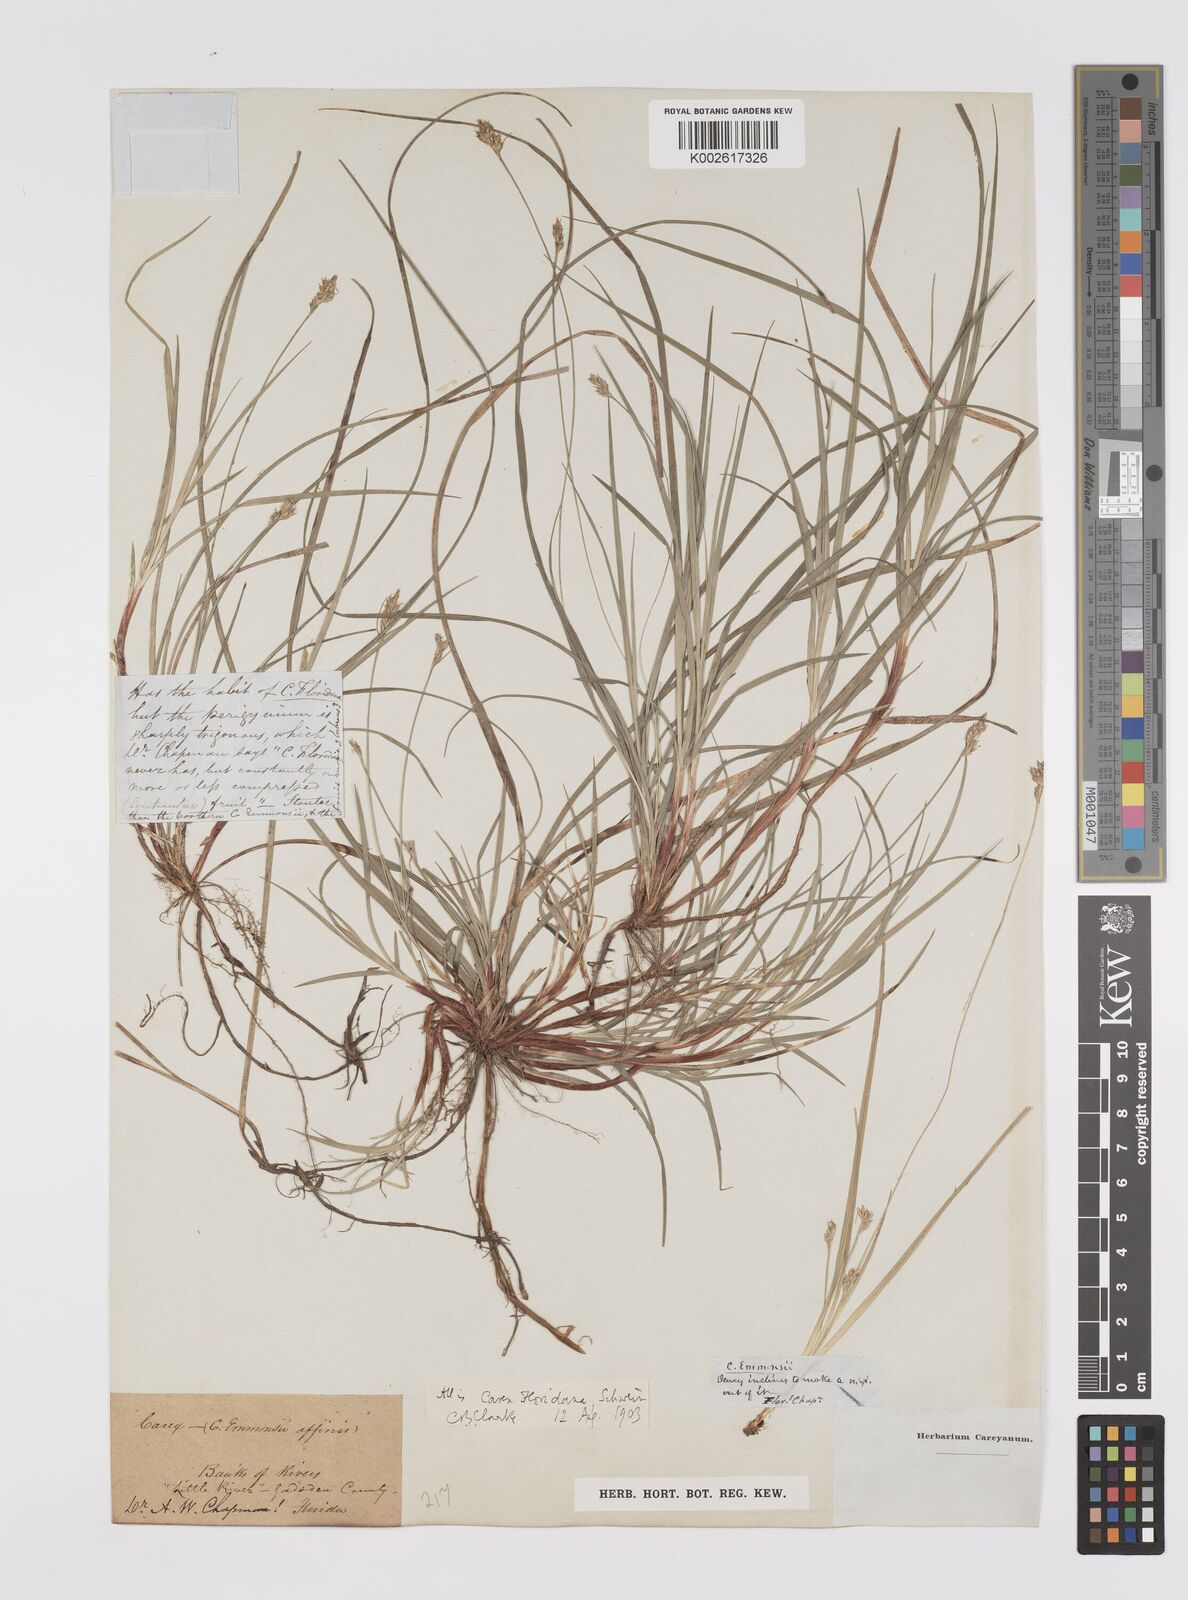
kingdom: Plantae
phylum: Tracheophyta
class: Liliopsida
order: Poales
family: Cyperaceae
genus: Carex
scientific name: Carex floridana
